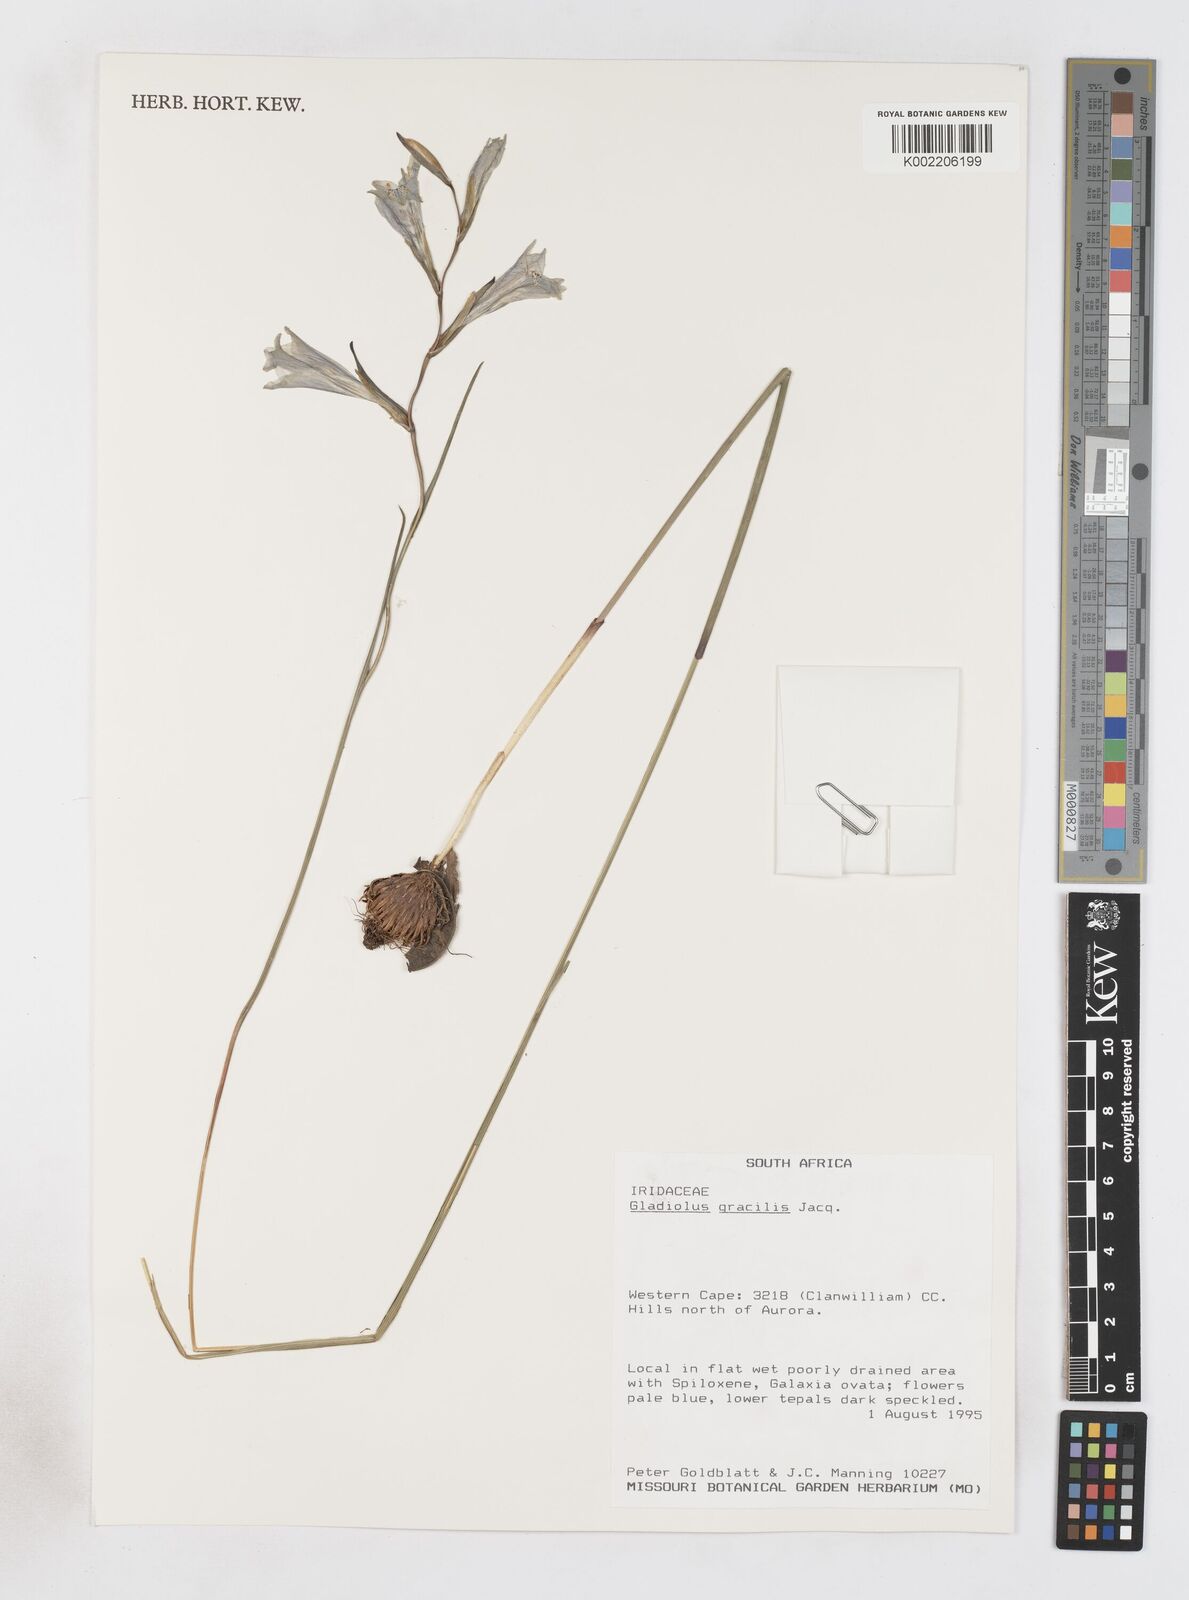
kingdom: Plantae
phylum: Tracheophyta
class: Liliopsida
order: Asparagales
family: Iridaceae
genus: Gladiolus
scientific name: Gladiolus gracilis
